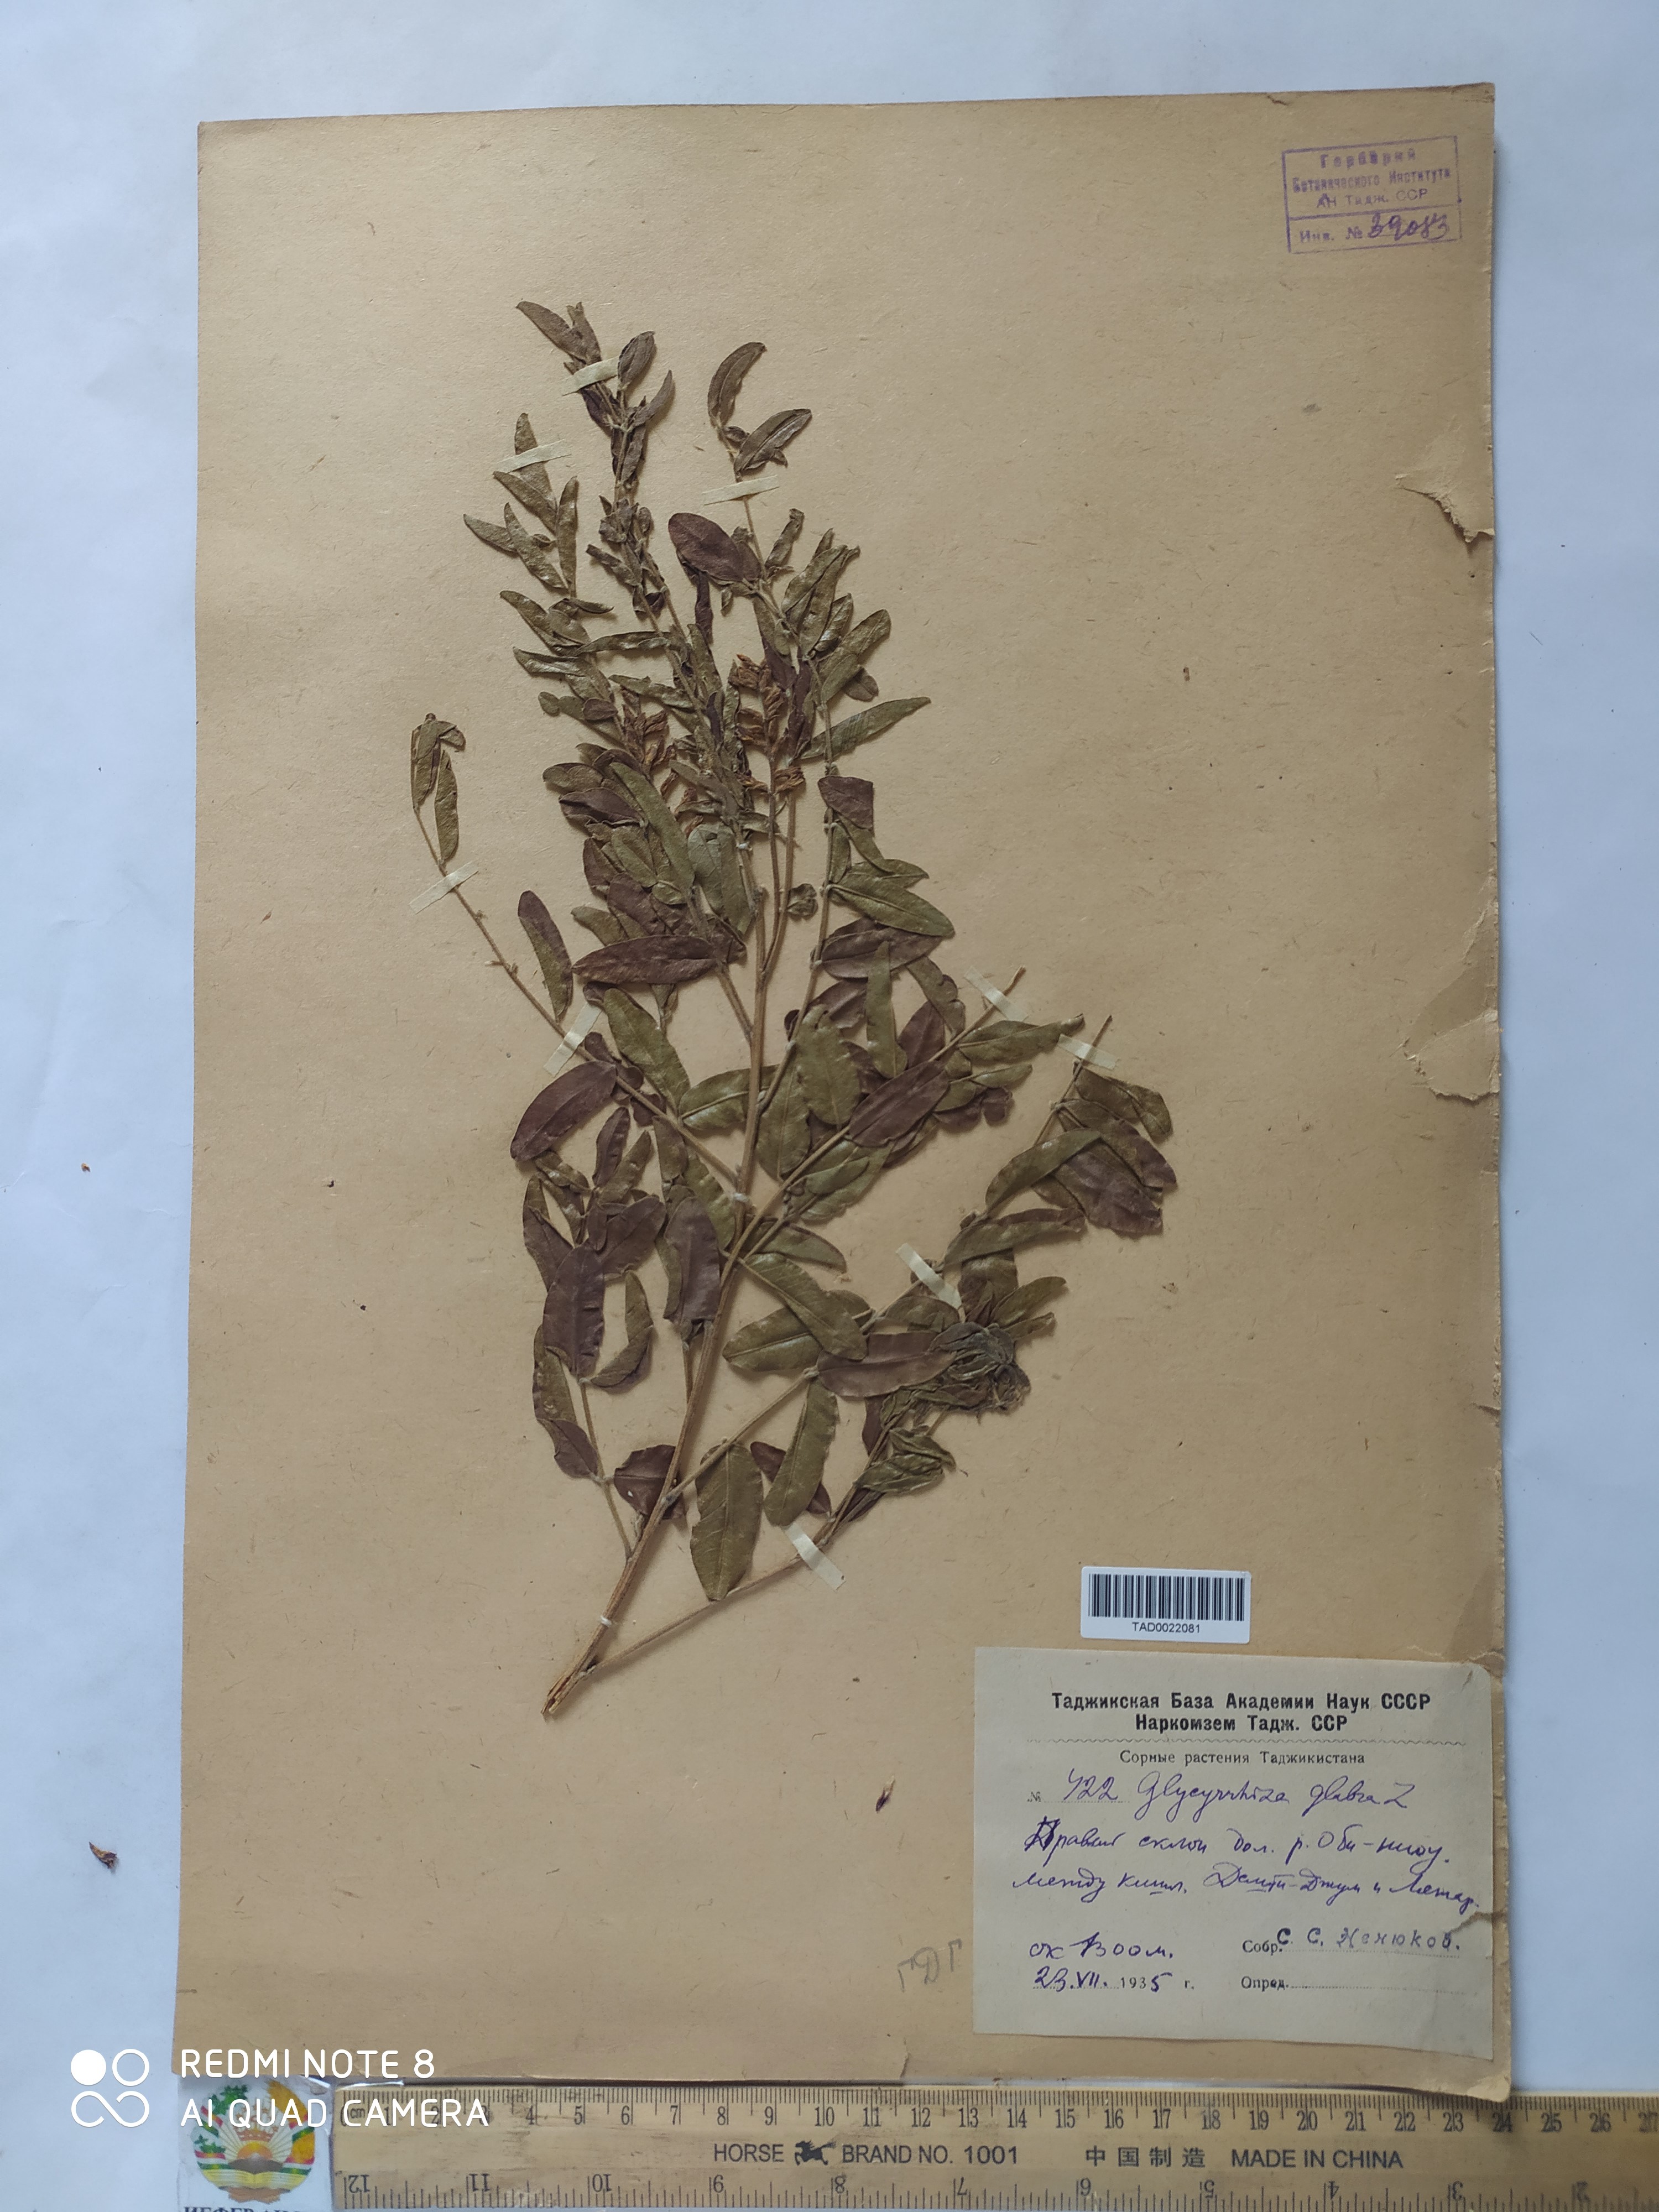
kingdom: Plantae
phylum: Tracheophyta
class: Magnoliopsida
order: Fabales
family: Fabaceae
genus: Glycyrrhiza
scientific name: Glycyrrhiza glabra
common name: Liquorice
